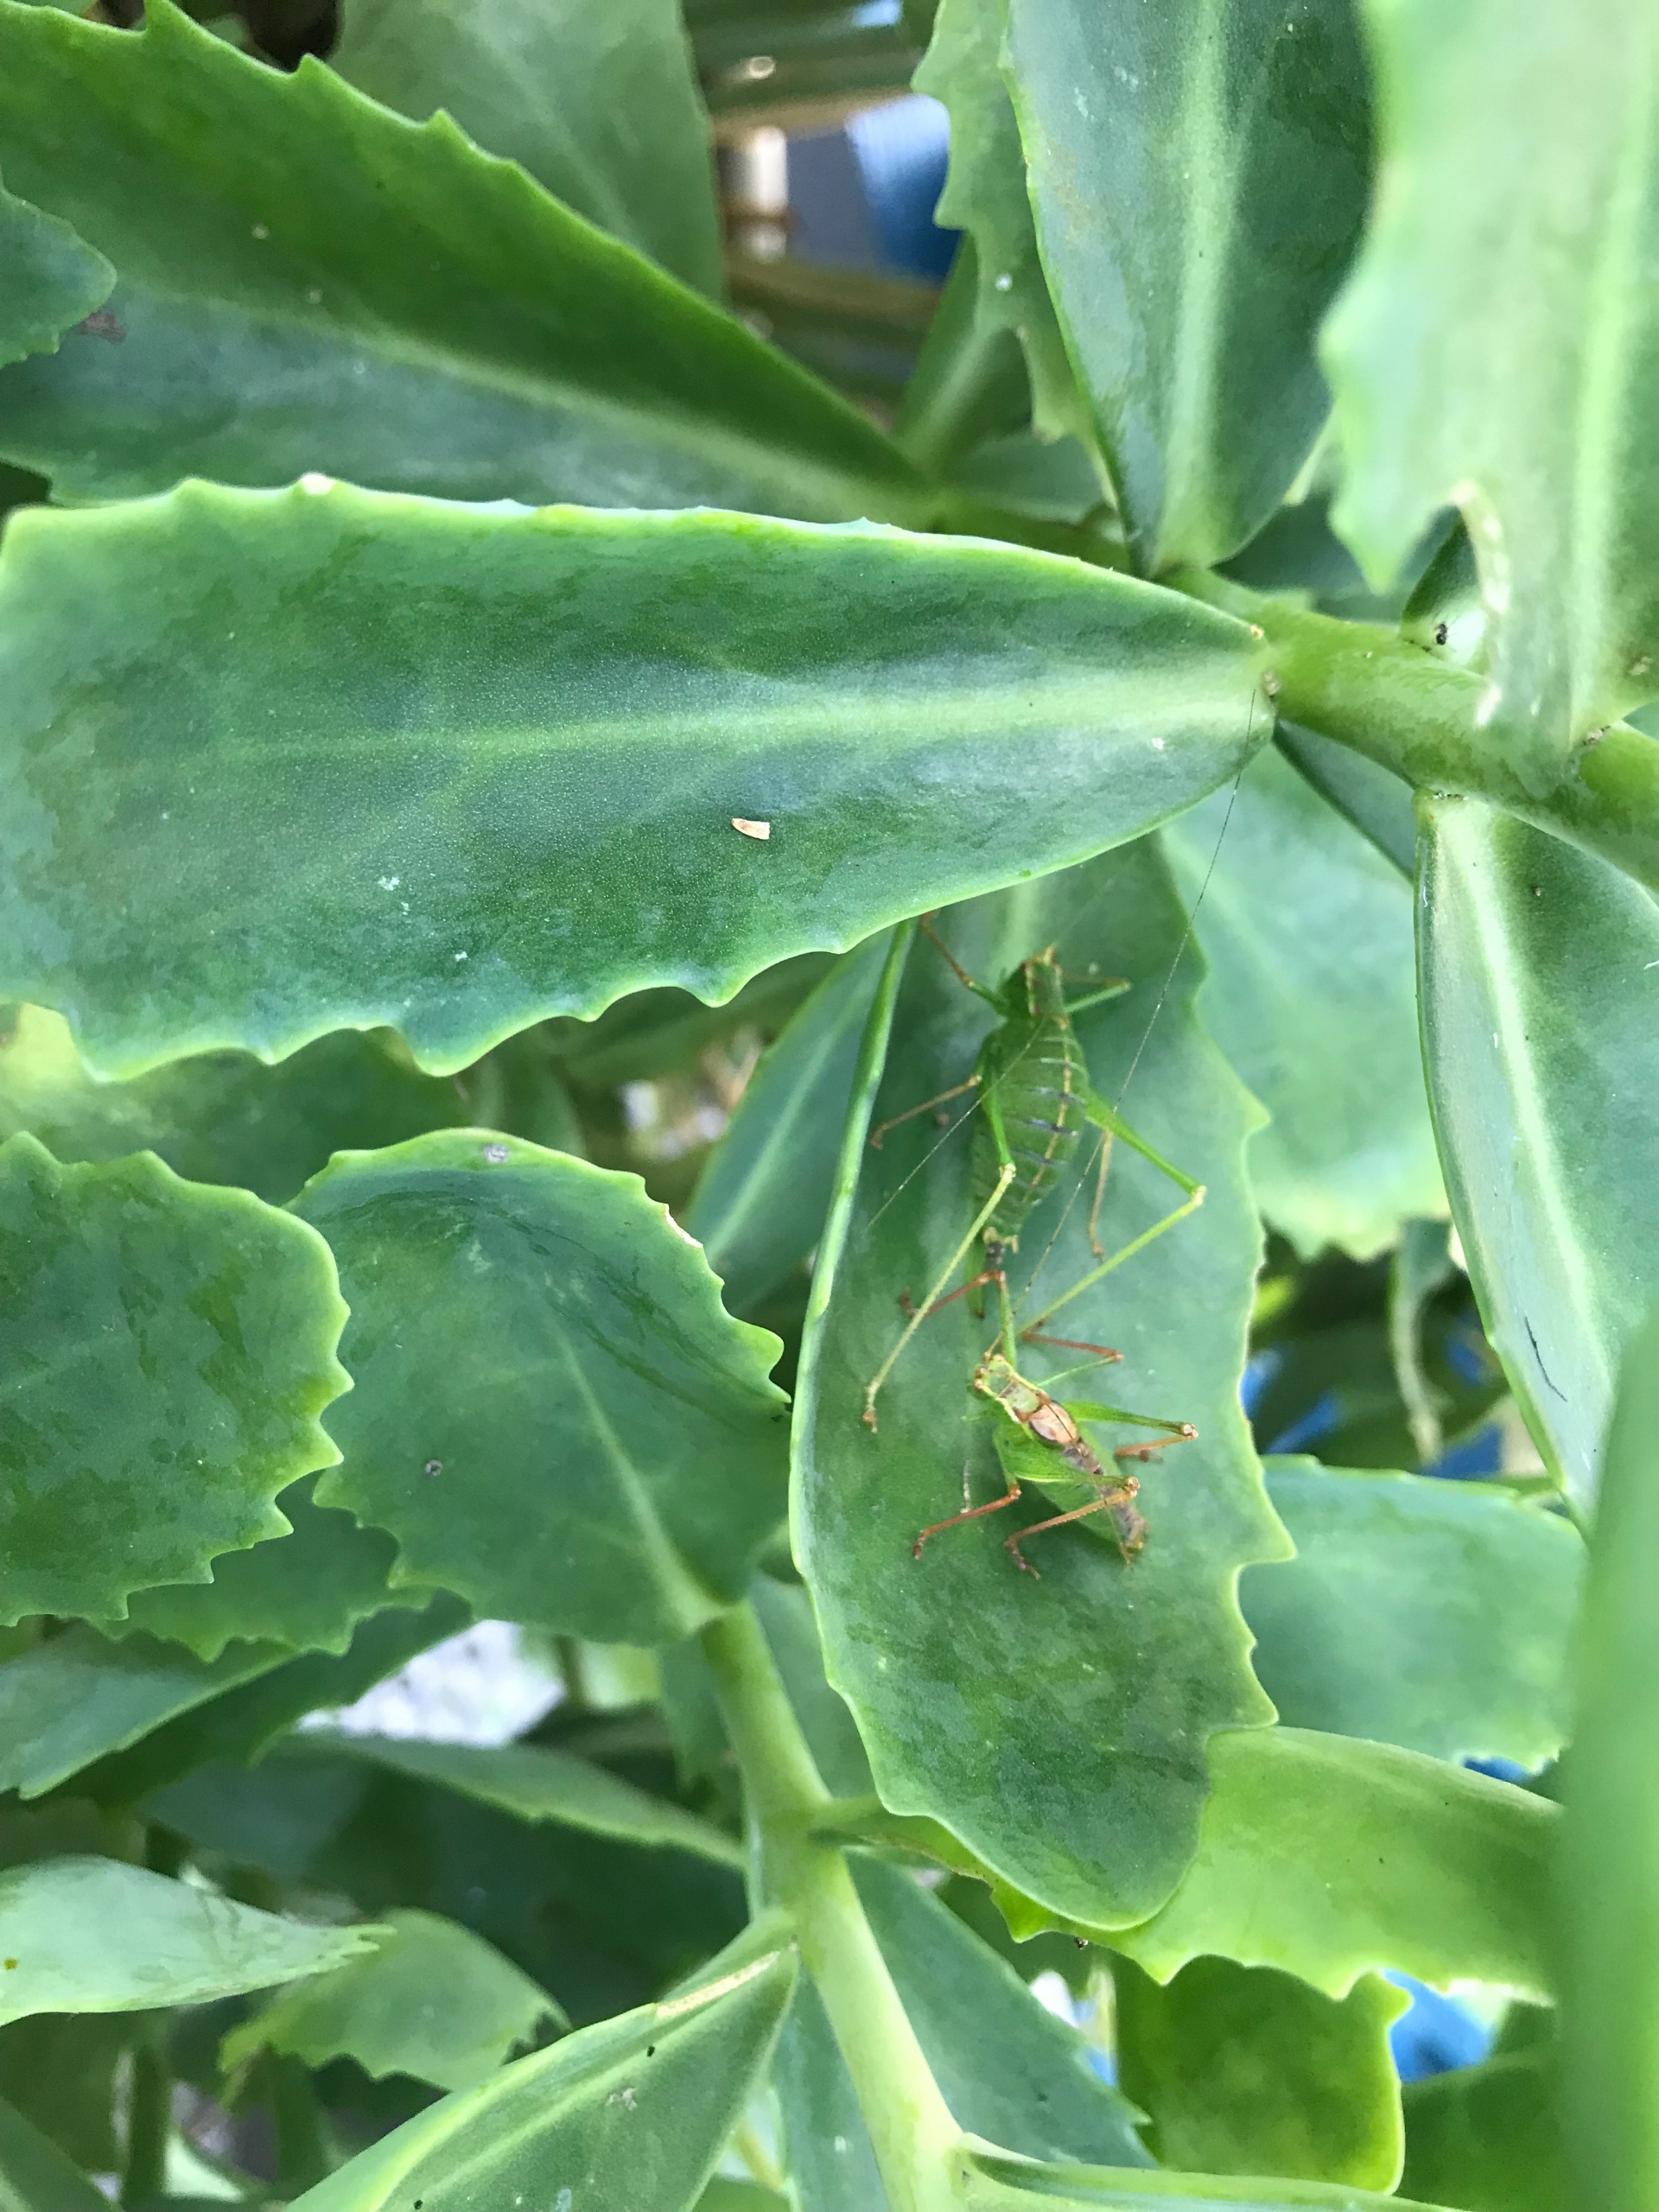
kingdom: Animalia
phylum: Arthropoda
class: Insecta
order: Orthoptera
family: Tettigoniidae
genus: Leptophyes
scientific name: Leptophyes punctatissima
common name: Krumknivgræshoppe
